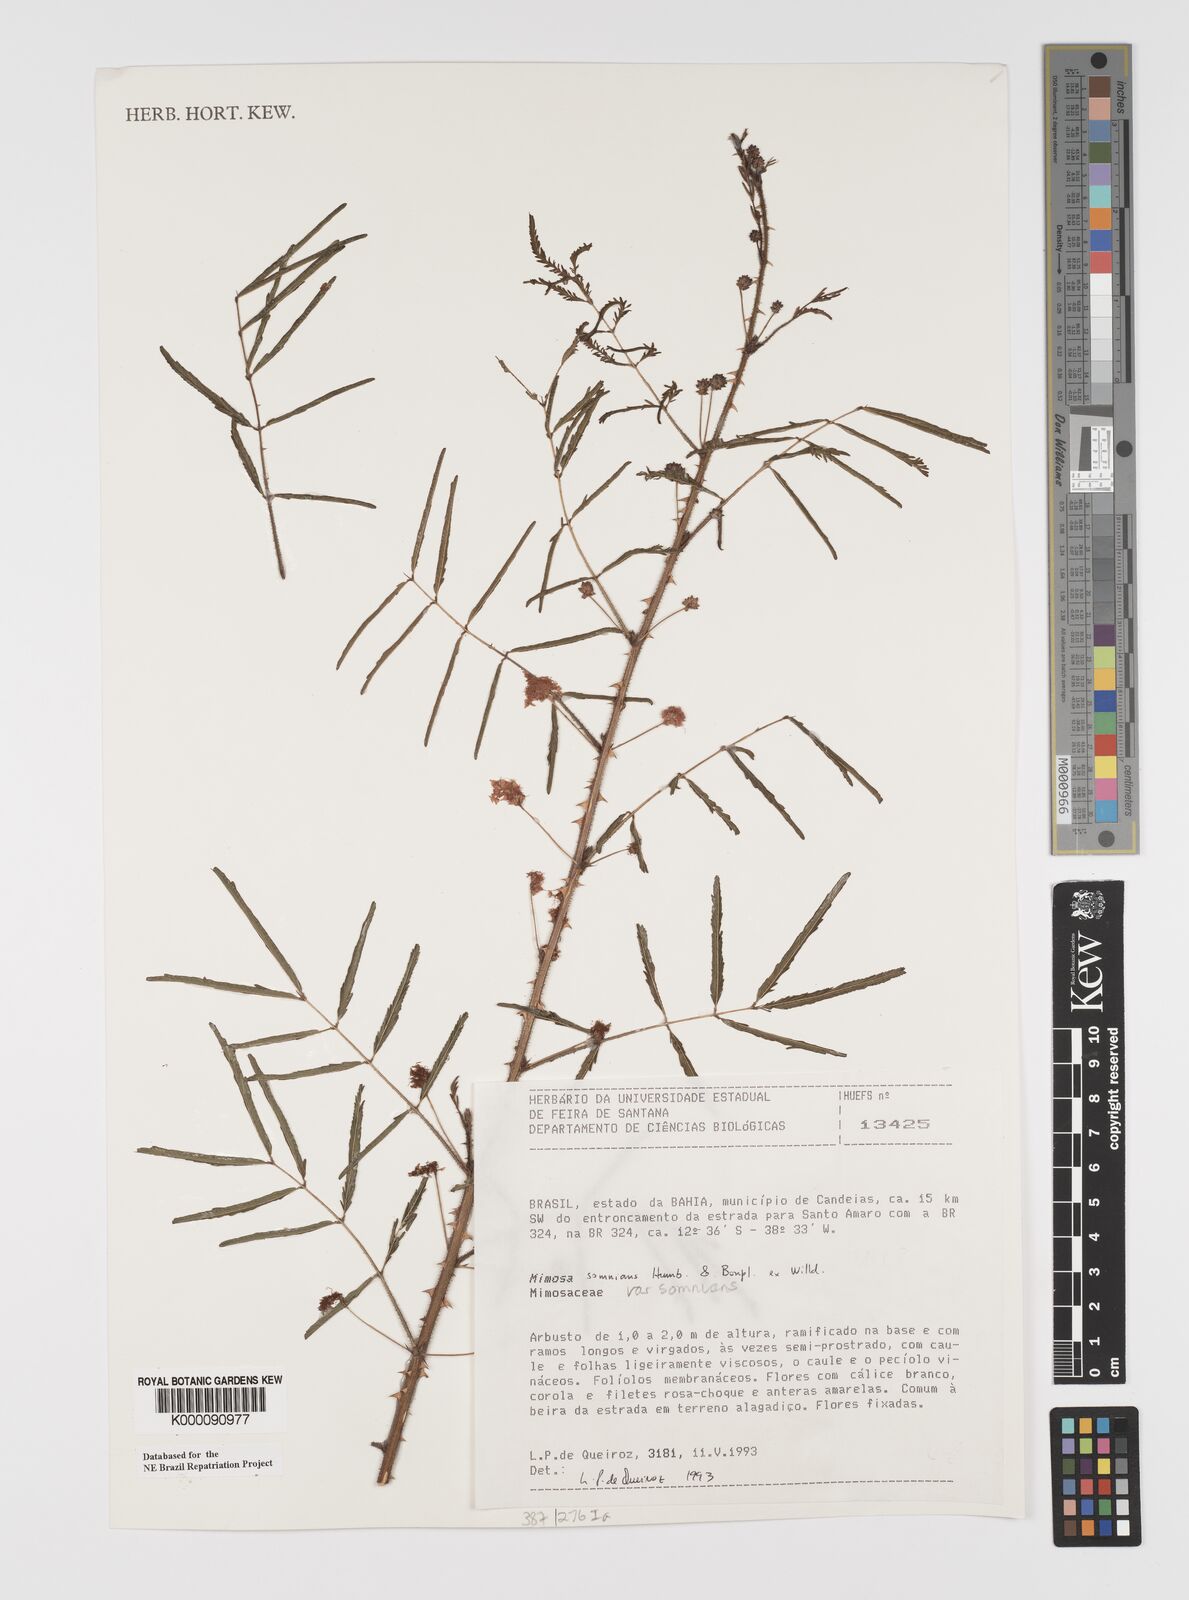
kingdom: Plantae
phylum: Tracheophyta
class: Magnoliopsida
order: Fabales
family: Fabaceae
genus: Mimosa
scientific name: Mimosa somnians
